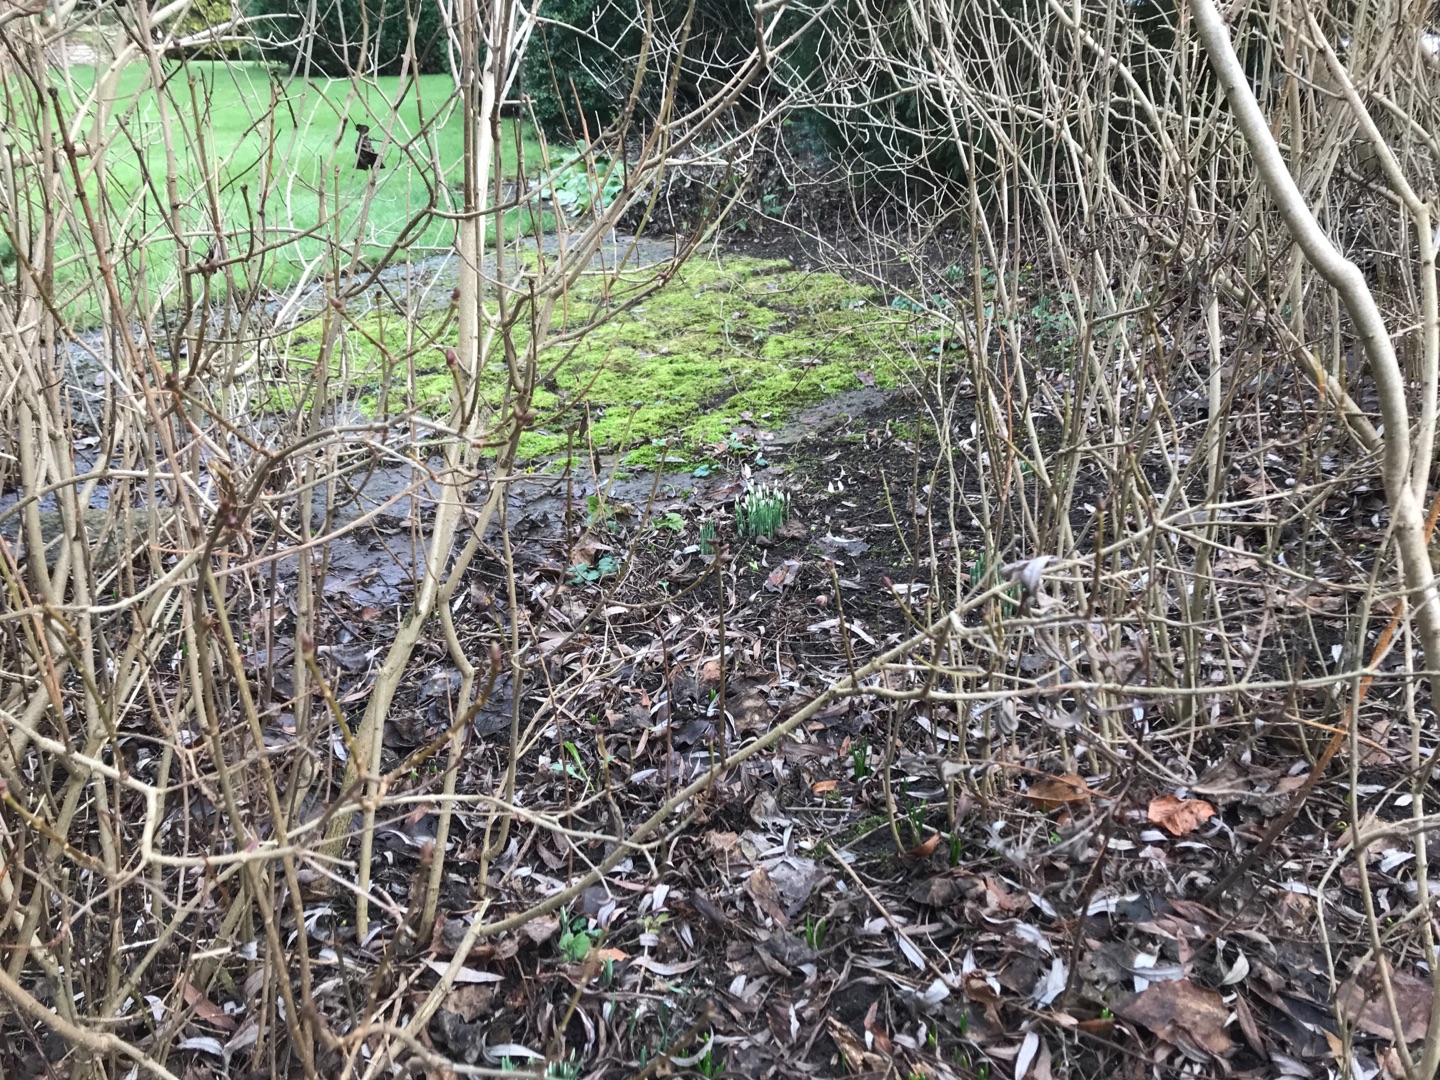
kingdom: Plantae
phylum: Tracheophyta
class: Liliopsida
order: Asparagales
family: Amaryllidaceae
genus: Galanthus
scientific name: Galanthus nivalis
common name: Vintergæk
